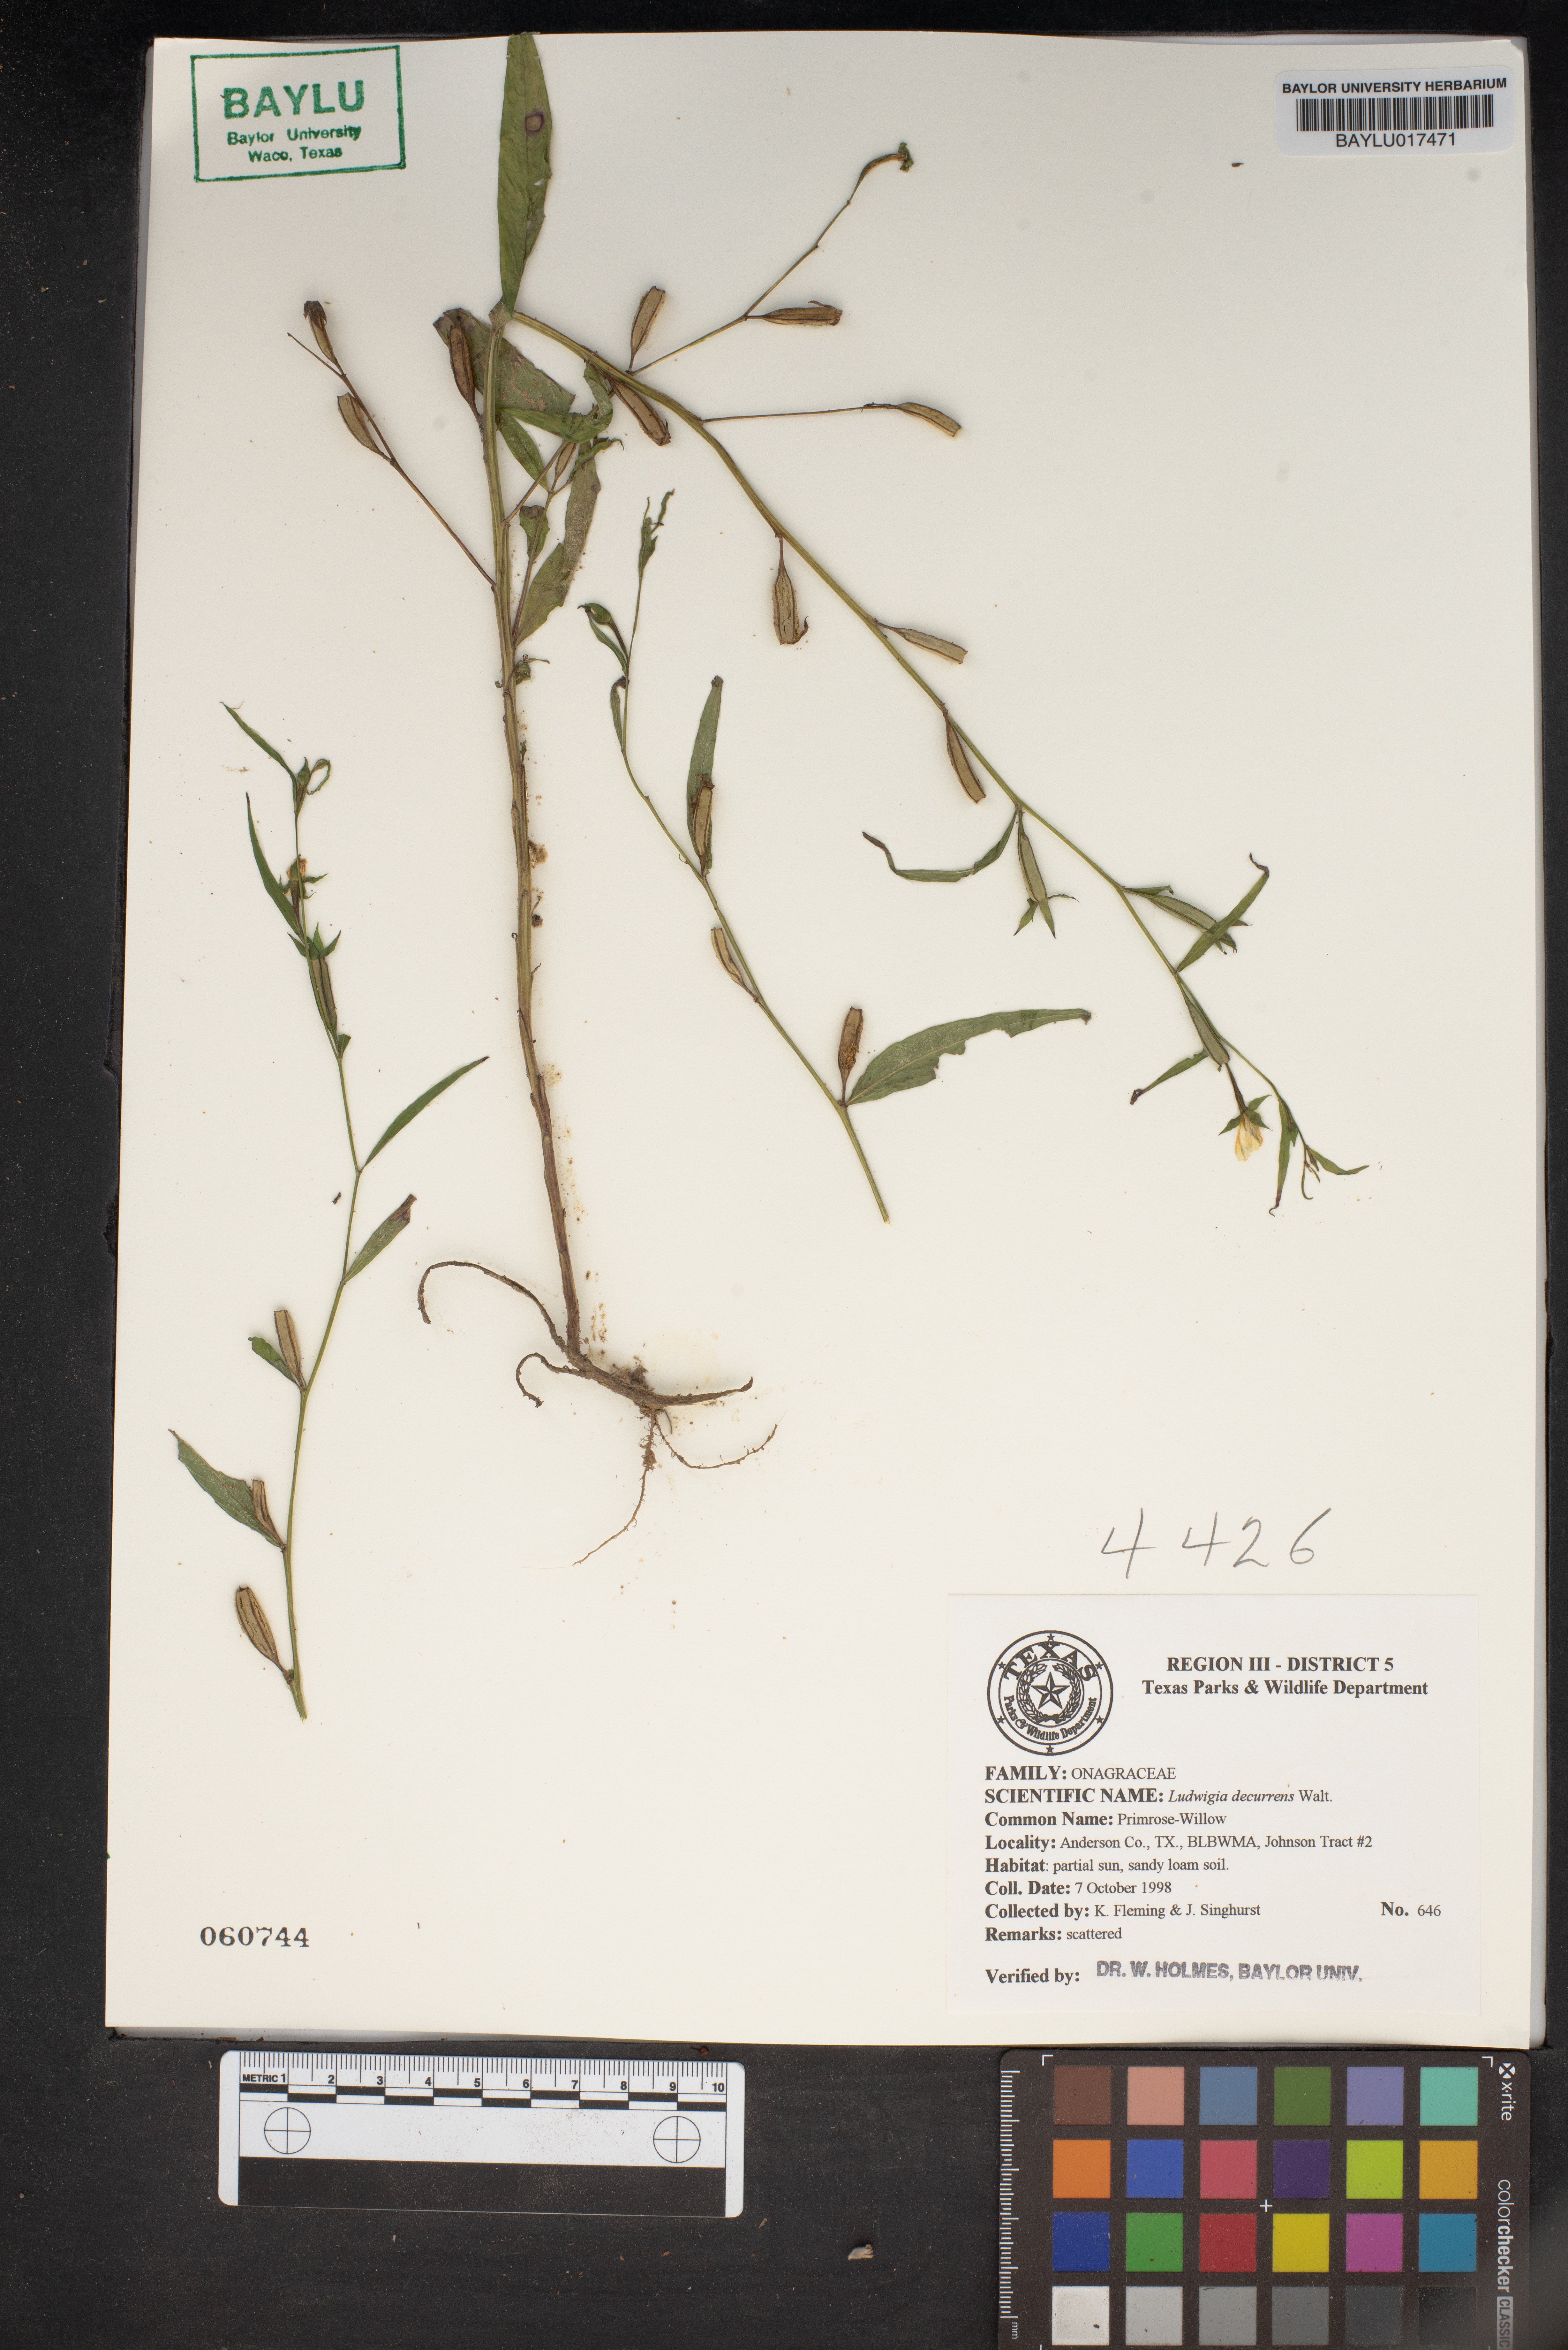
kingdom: Plantae
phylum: Tracheophyta
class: Magnoliopsida
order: Myrtales
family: Onagraceae
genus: Ludwigia
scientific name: Ludwigia decurrens
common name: Winged water-primrose
